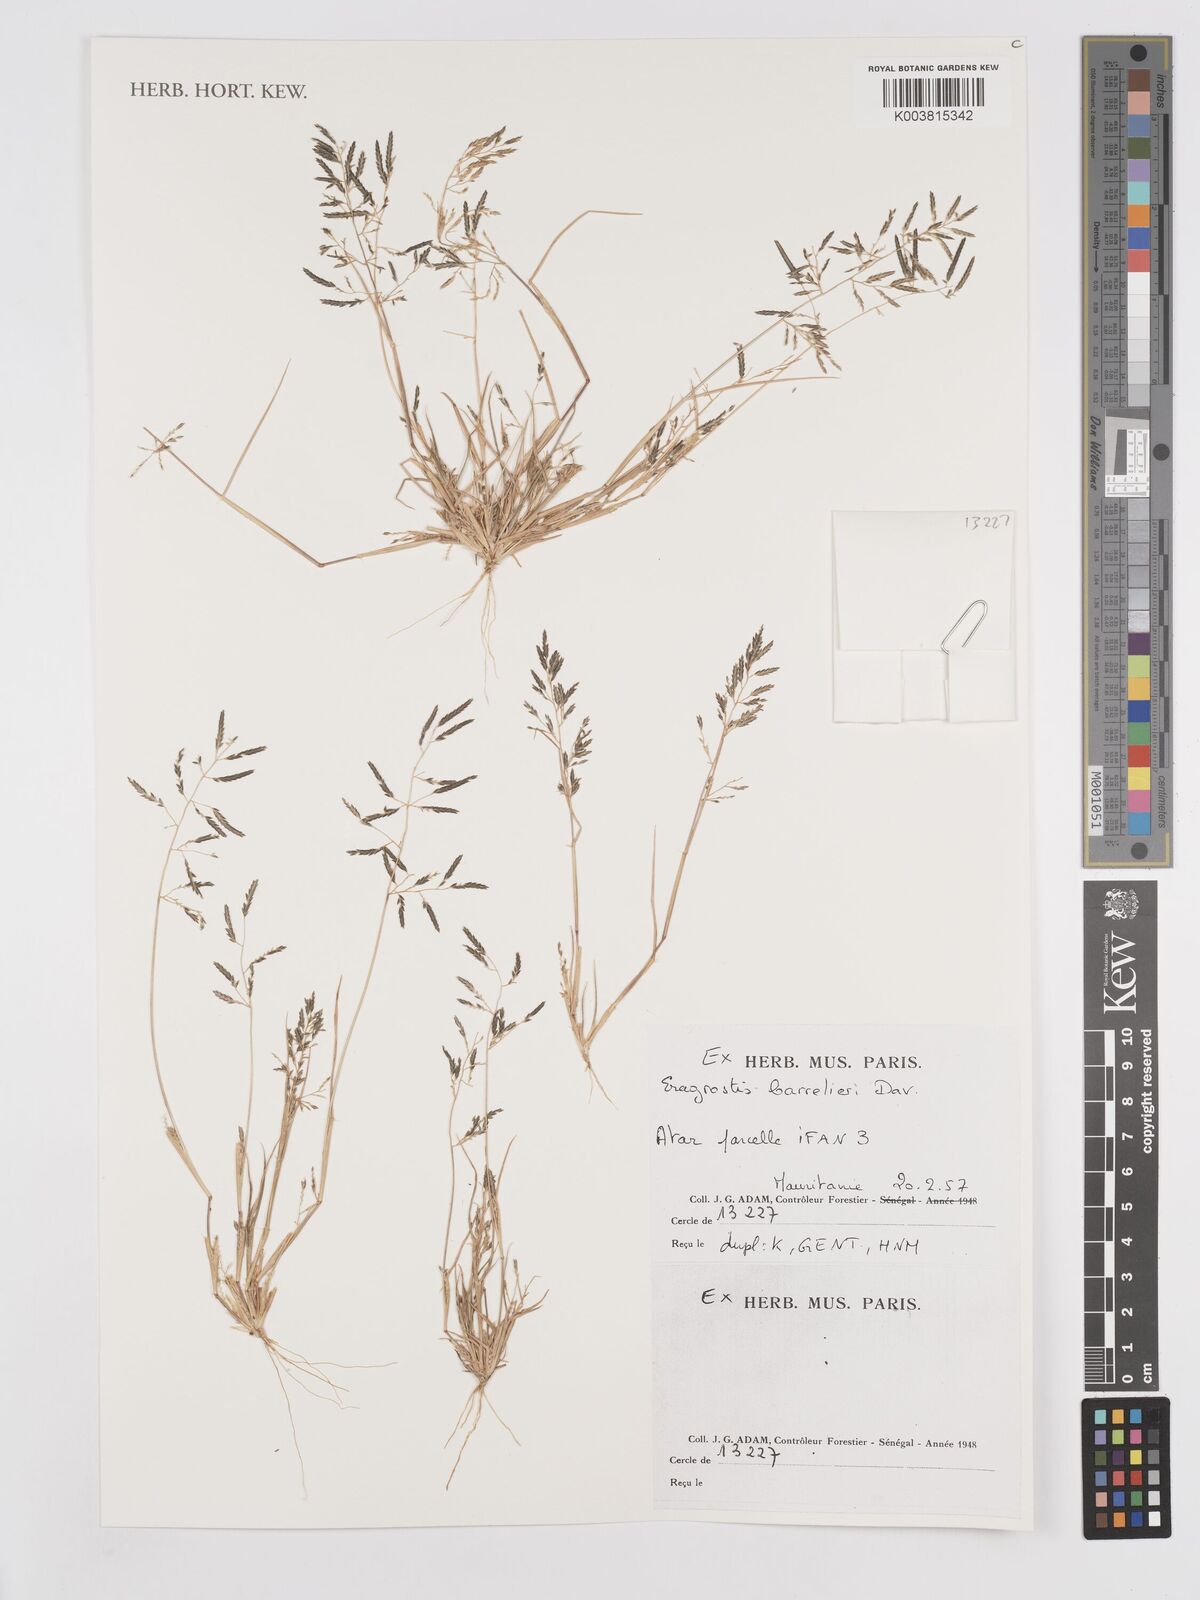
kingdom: Plantae
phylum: Tracheophyta
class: Liliopsida
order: Poales
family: Poaceae
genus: Eragrostis
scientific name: Eragrostis barrelieri
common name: Mediterranean lovegrass
